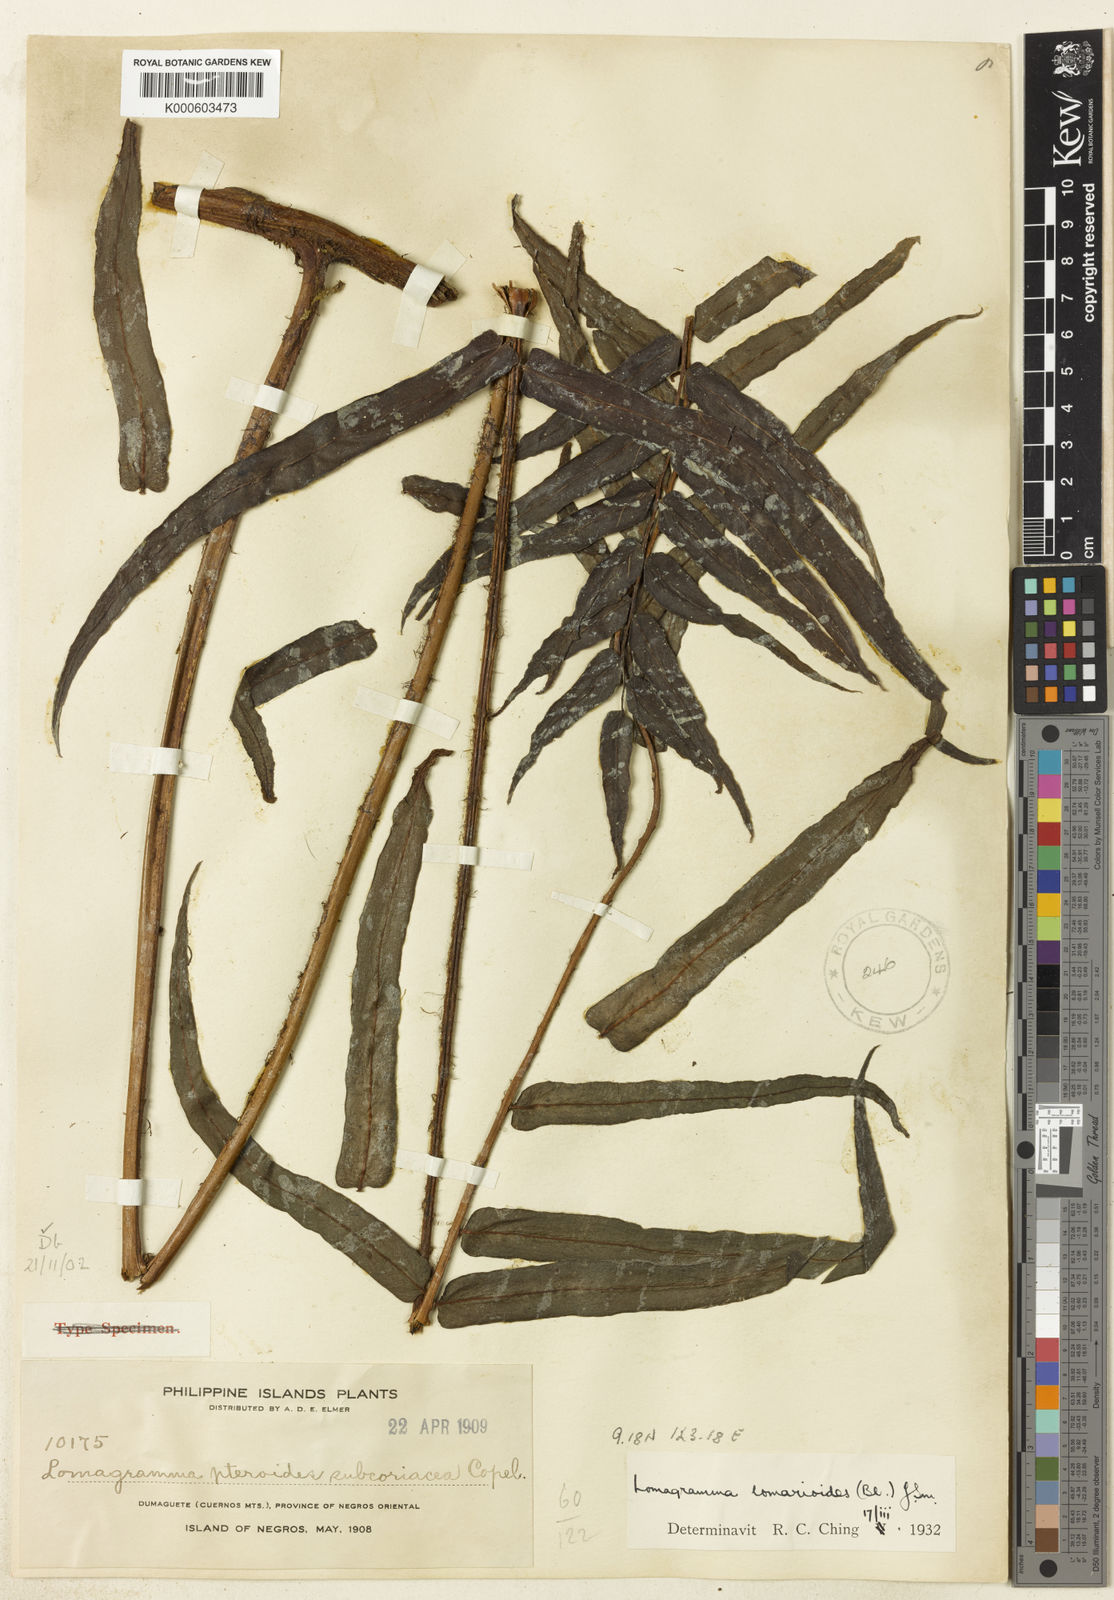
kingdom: Plantae
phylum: Tracheophyta
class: Polypodiopsida
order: Polypodiales
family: Dryopteridaceae
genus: Lomagramma
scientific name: Lomagramma pteroides
